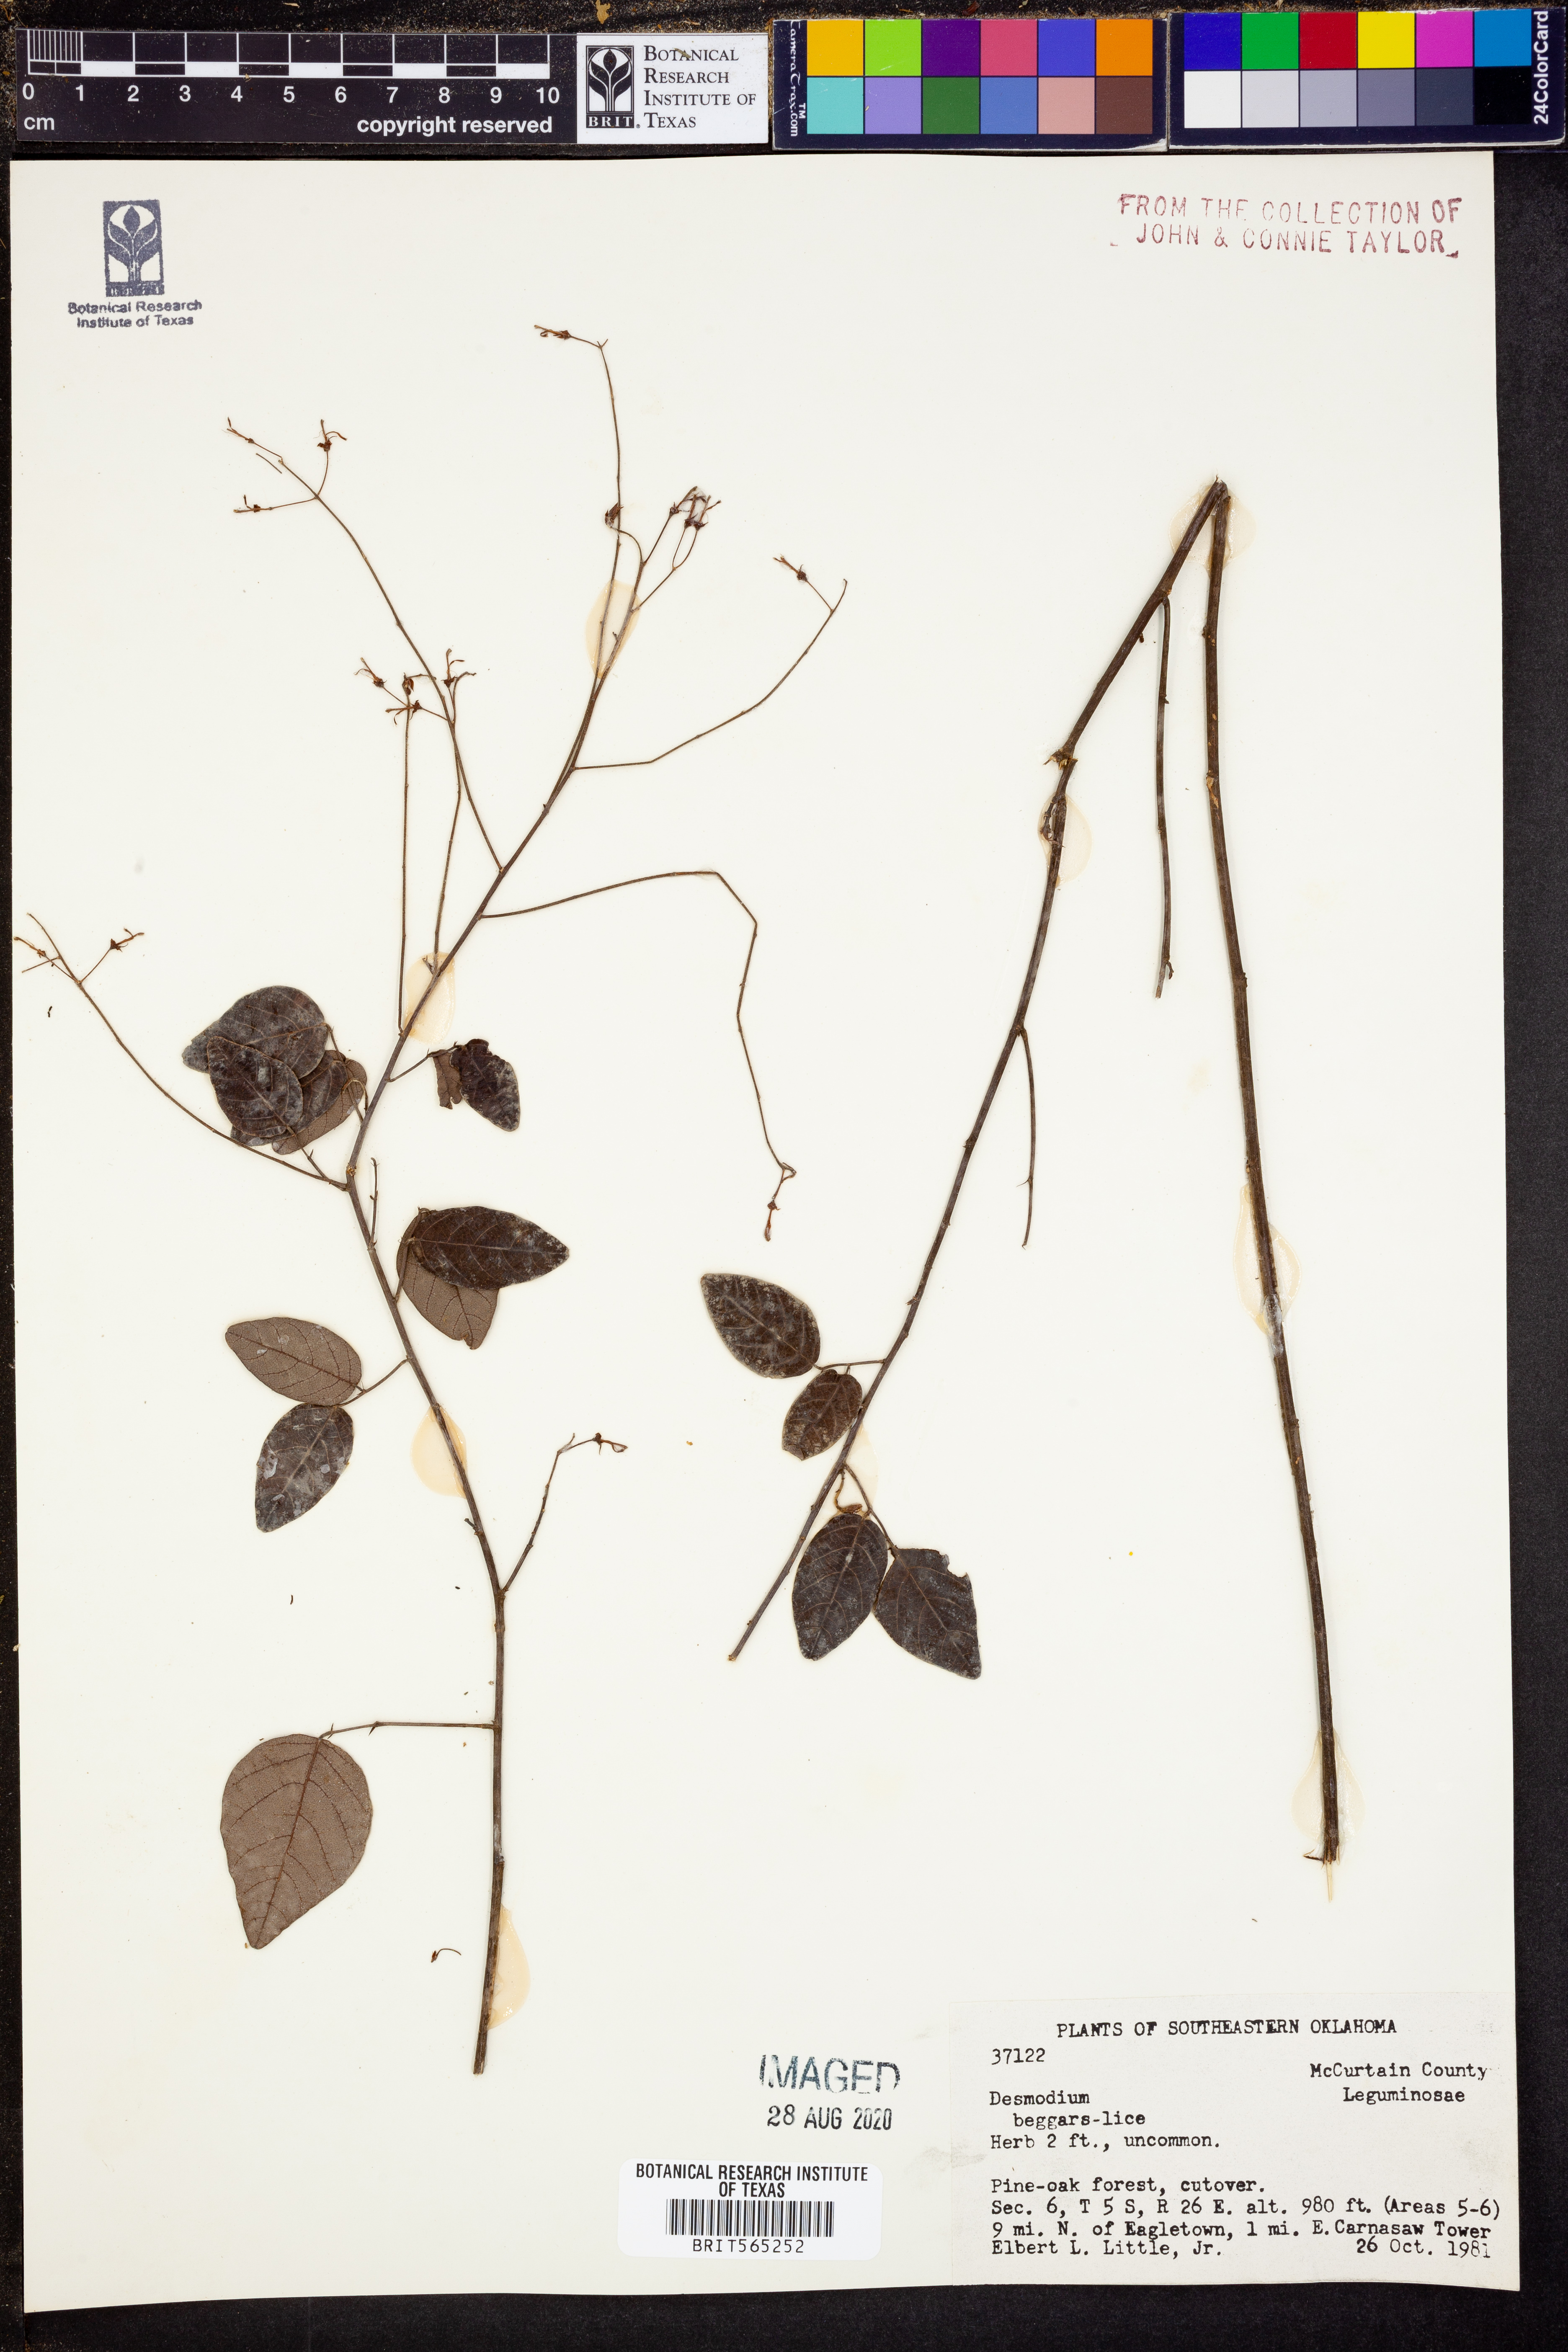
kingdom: Plantae
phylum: Tracheophyta
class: Magnoliopsida
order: Fabales
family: Fabaceae
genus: Desmodium
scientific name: Desmodium
